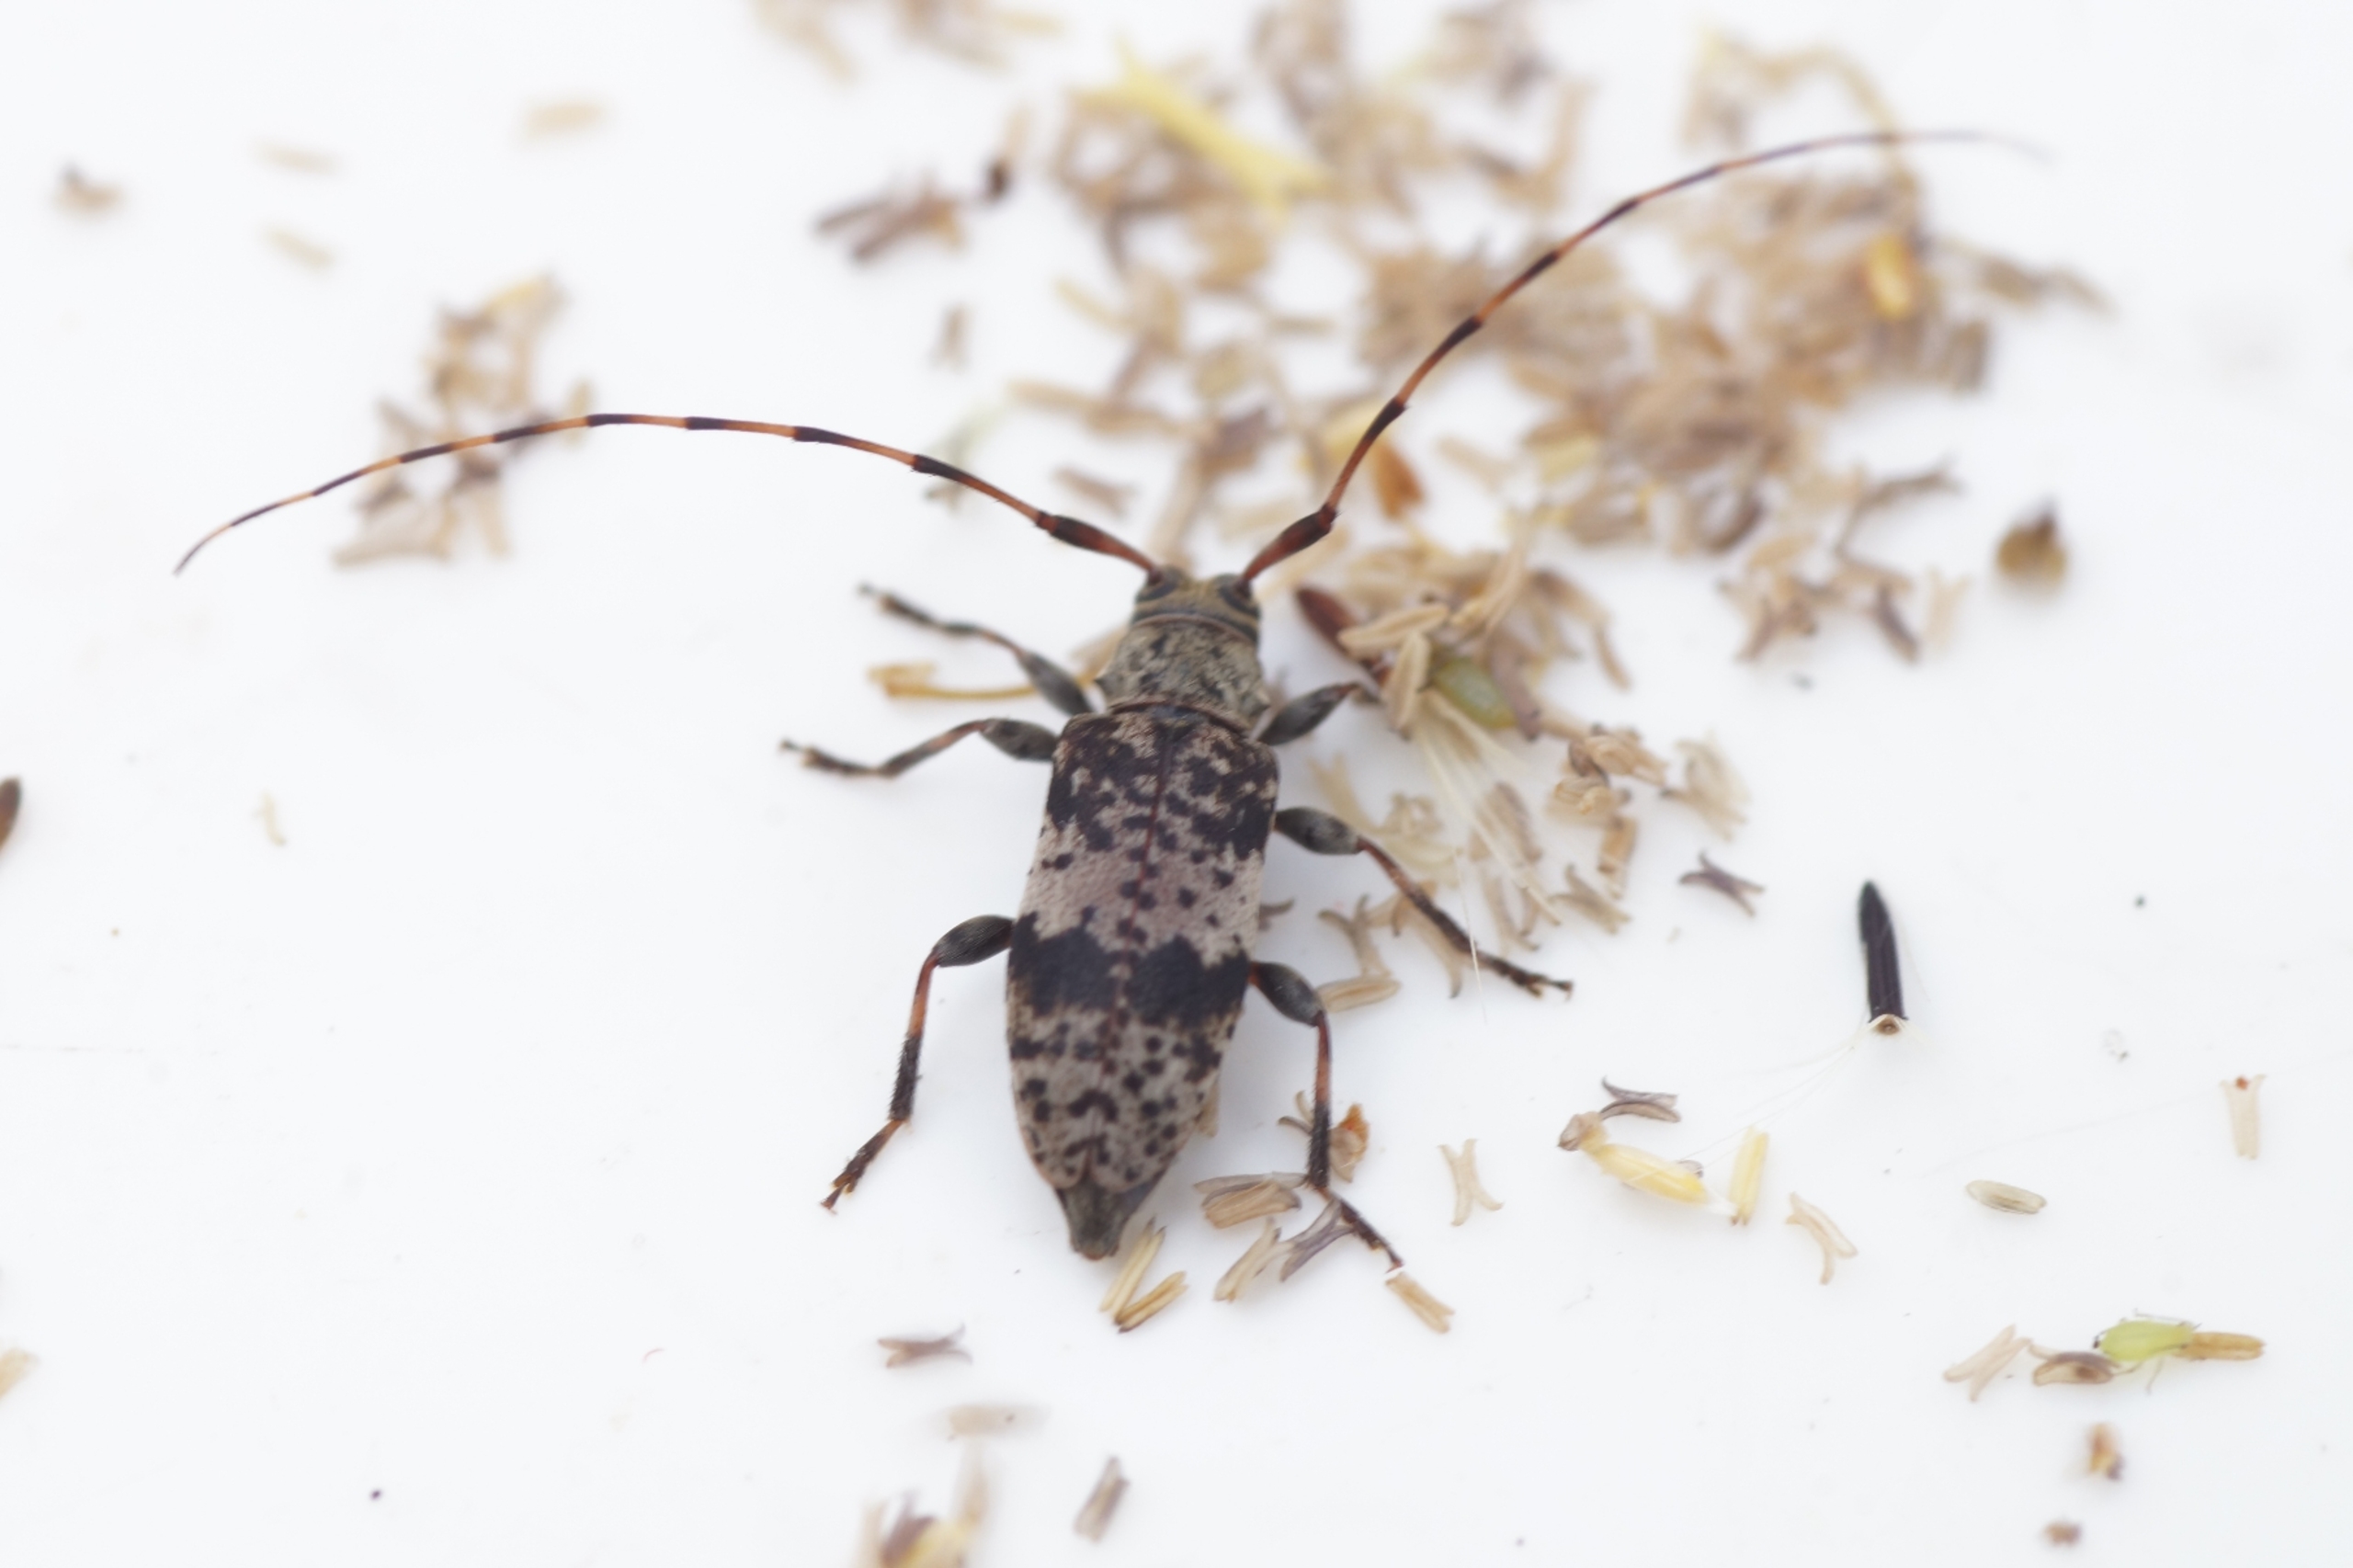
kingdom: Animalia
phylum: Arthropoda
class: Insecta
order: Coleoptera
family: Cerambycidae
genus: Leiopus
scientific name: Leiopus nebulosus
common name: Mørkbåndet gråbuk
